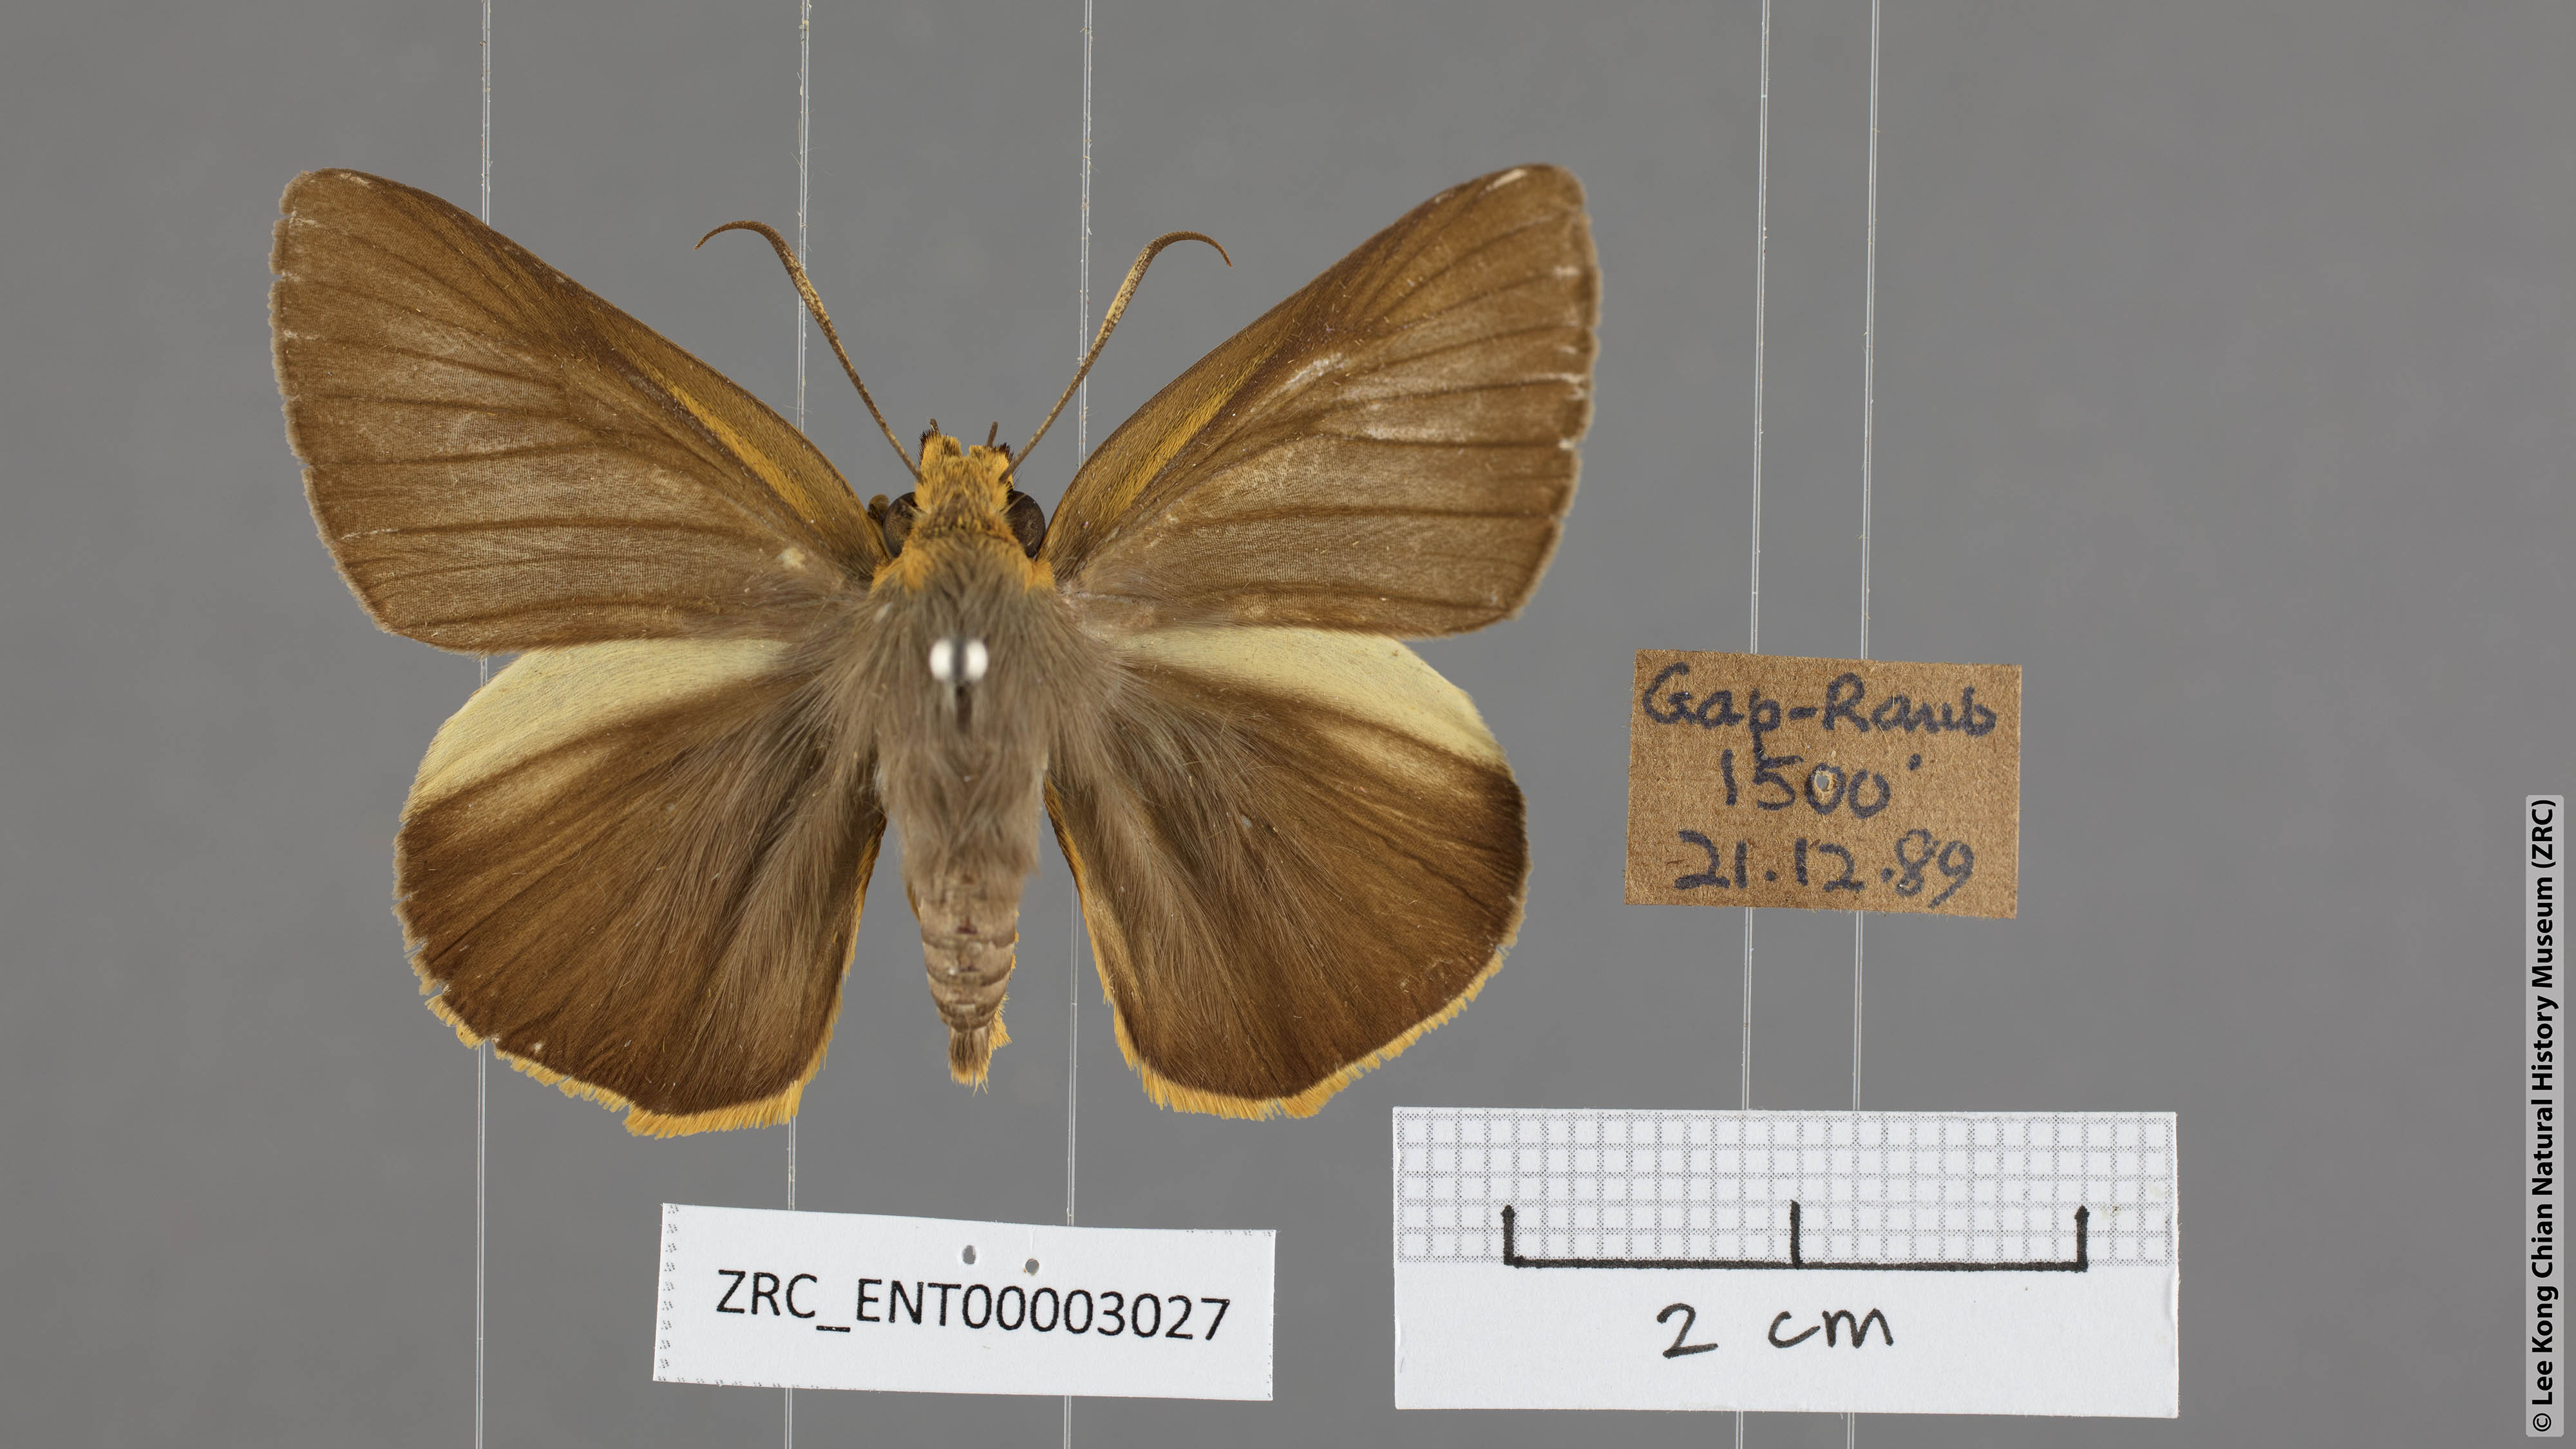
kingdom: Animalia
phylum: Arthropoda
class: Insecta
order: Lepidoptera
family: Hesperiidae
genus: Bibasis
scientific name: Bibasis Burara harisa
